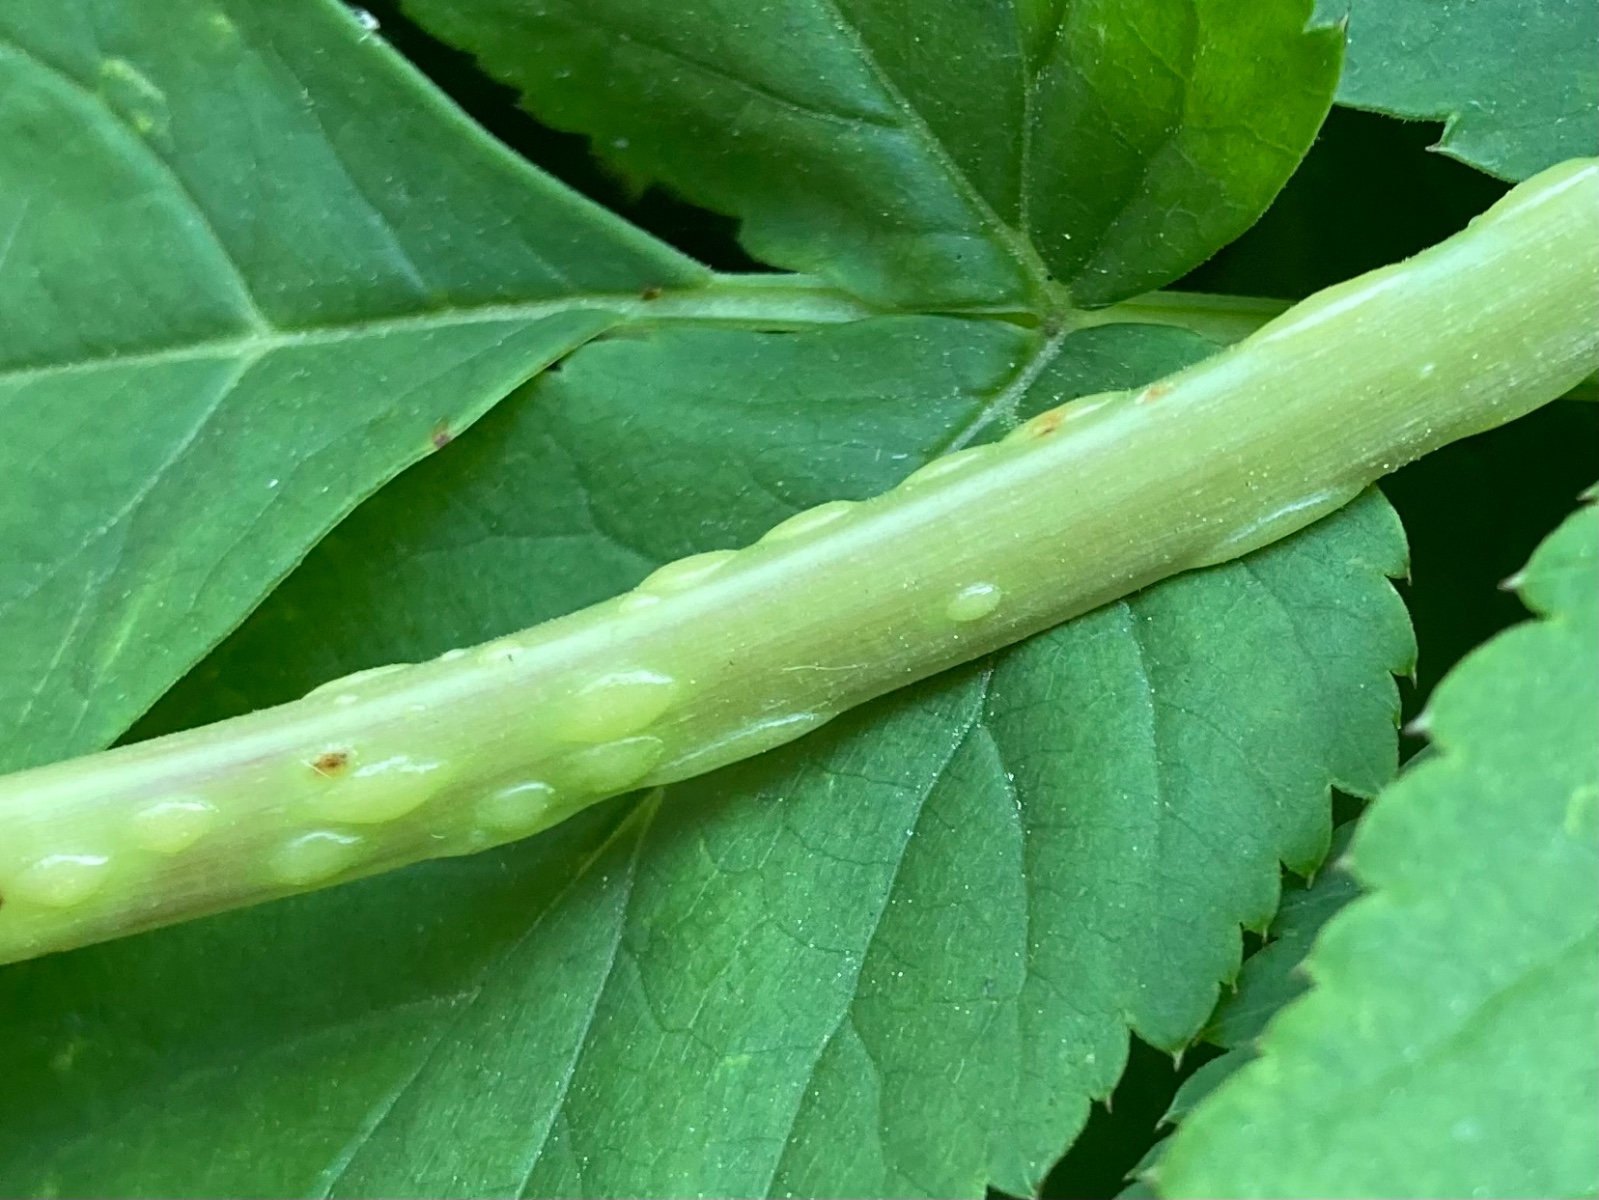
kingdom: Fungi
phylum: Ascomycota
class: Taphrinomycetes
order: Taphrinales
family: Taphrinaceae
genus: Protomyces
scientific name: Protomyces macrosporus
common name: skvalderkål-vablesæk
